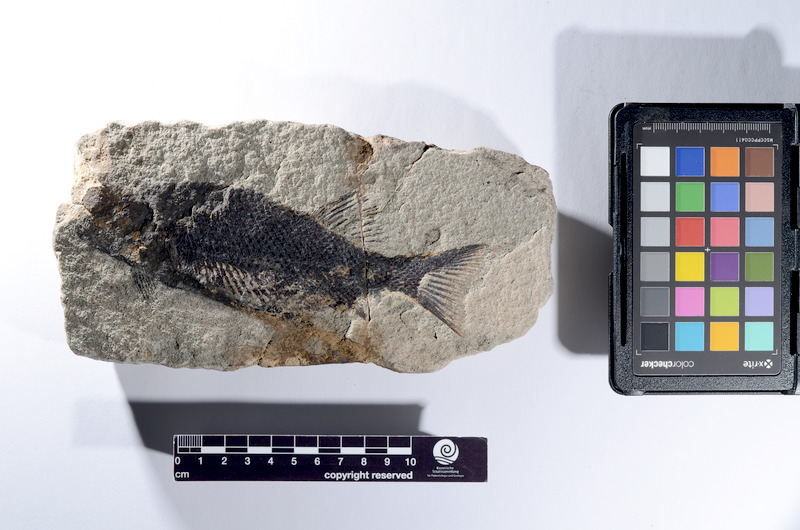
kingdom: Animalia
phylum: Chordata
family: Semionotidae
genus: Semionotus
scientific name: Semionotus bergeri
